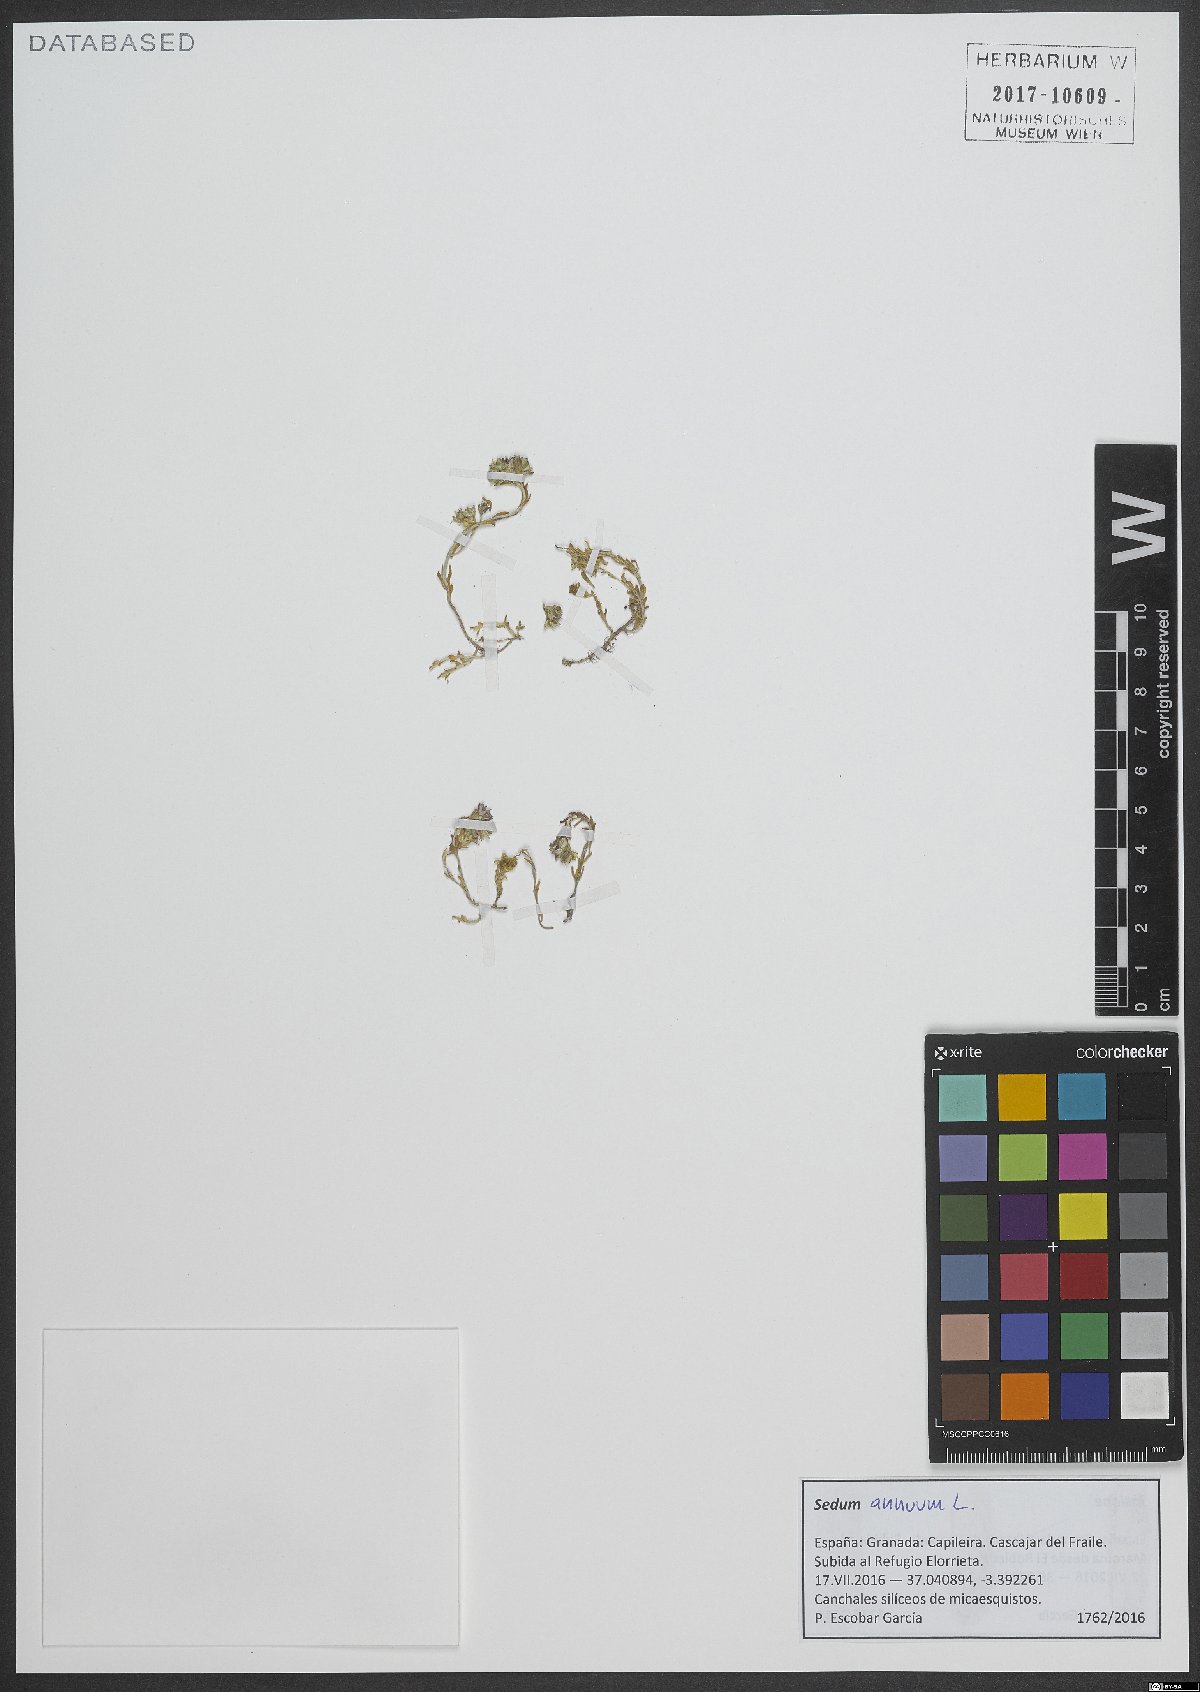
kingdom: Plantae
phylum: Tracheophyta
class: Magnoliopsida
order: Saxifragales
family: Crassulaceae
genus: Sedum
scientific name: Sedum annuum
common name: Annual stonecrop
